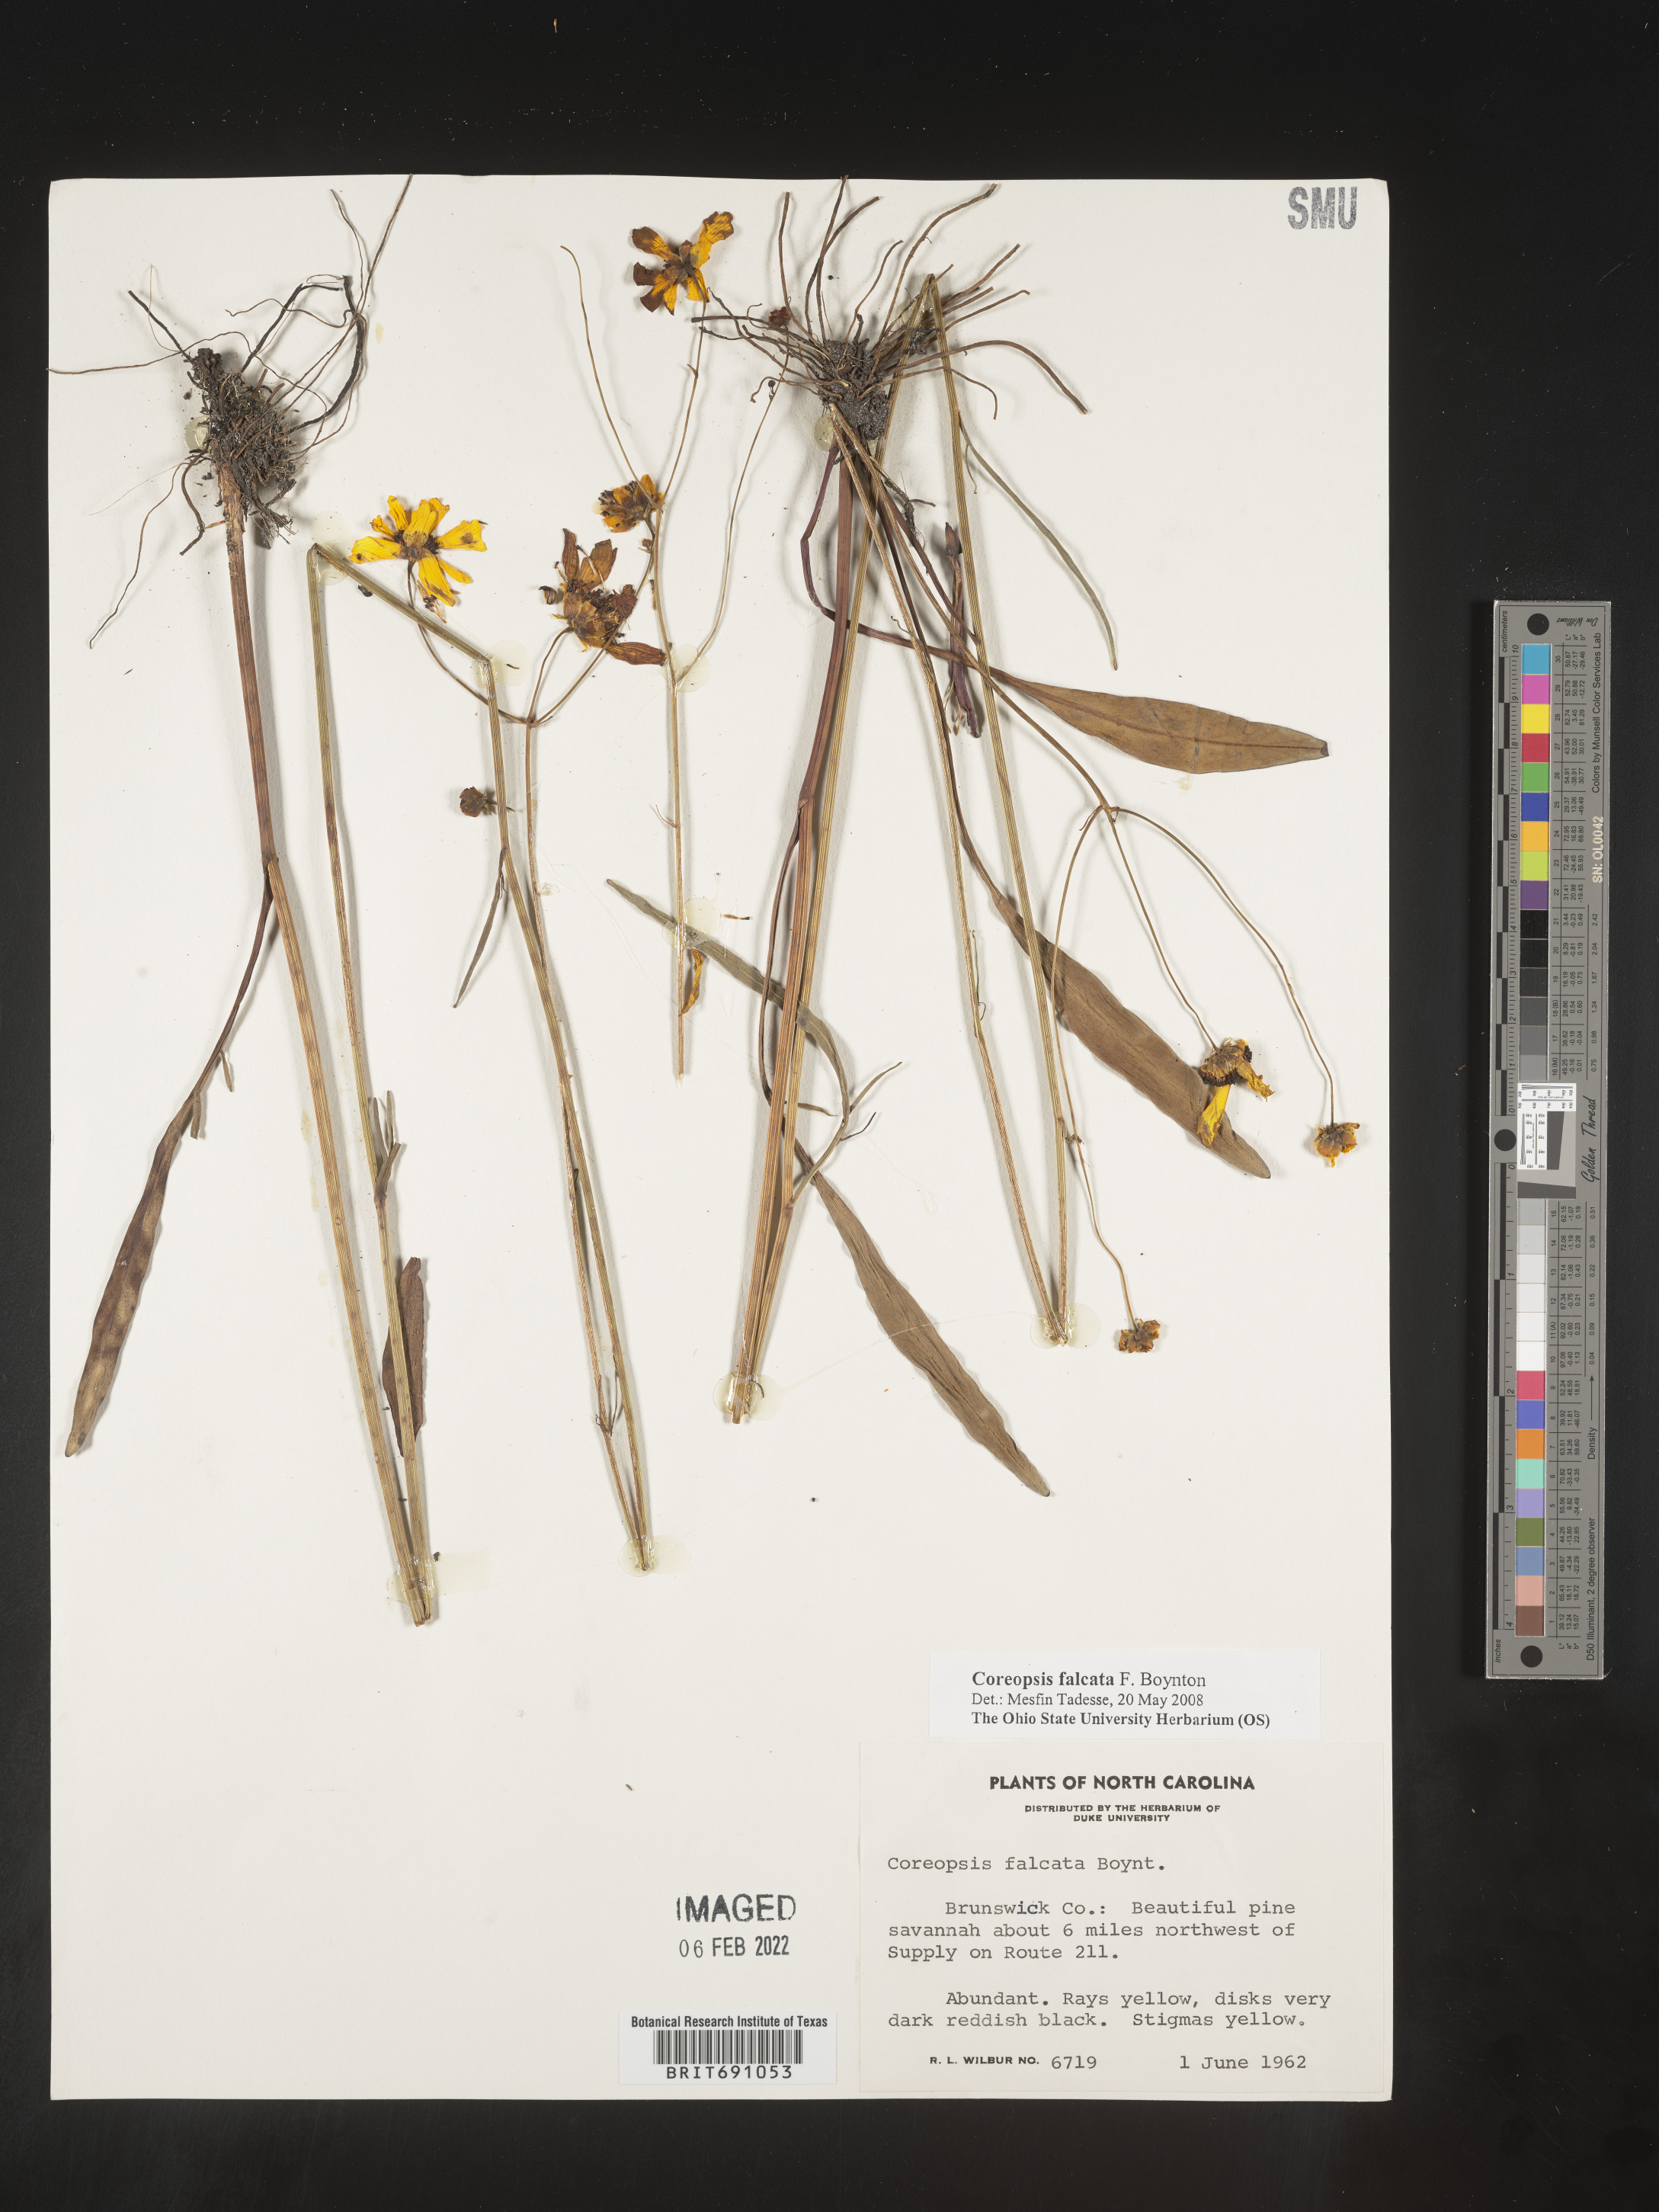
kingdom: Plantae
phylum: Tracheophyta
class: Magnoliopsida
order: Asterales
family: Asteraceae
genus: Coreopsis
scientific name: Coreopsis
